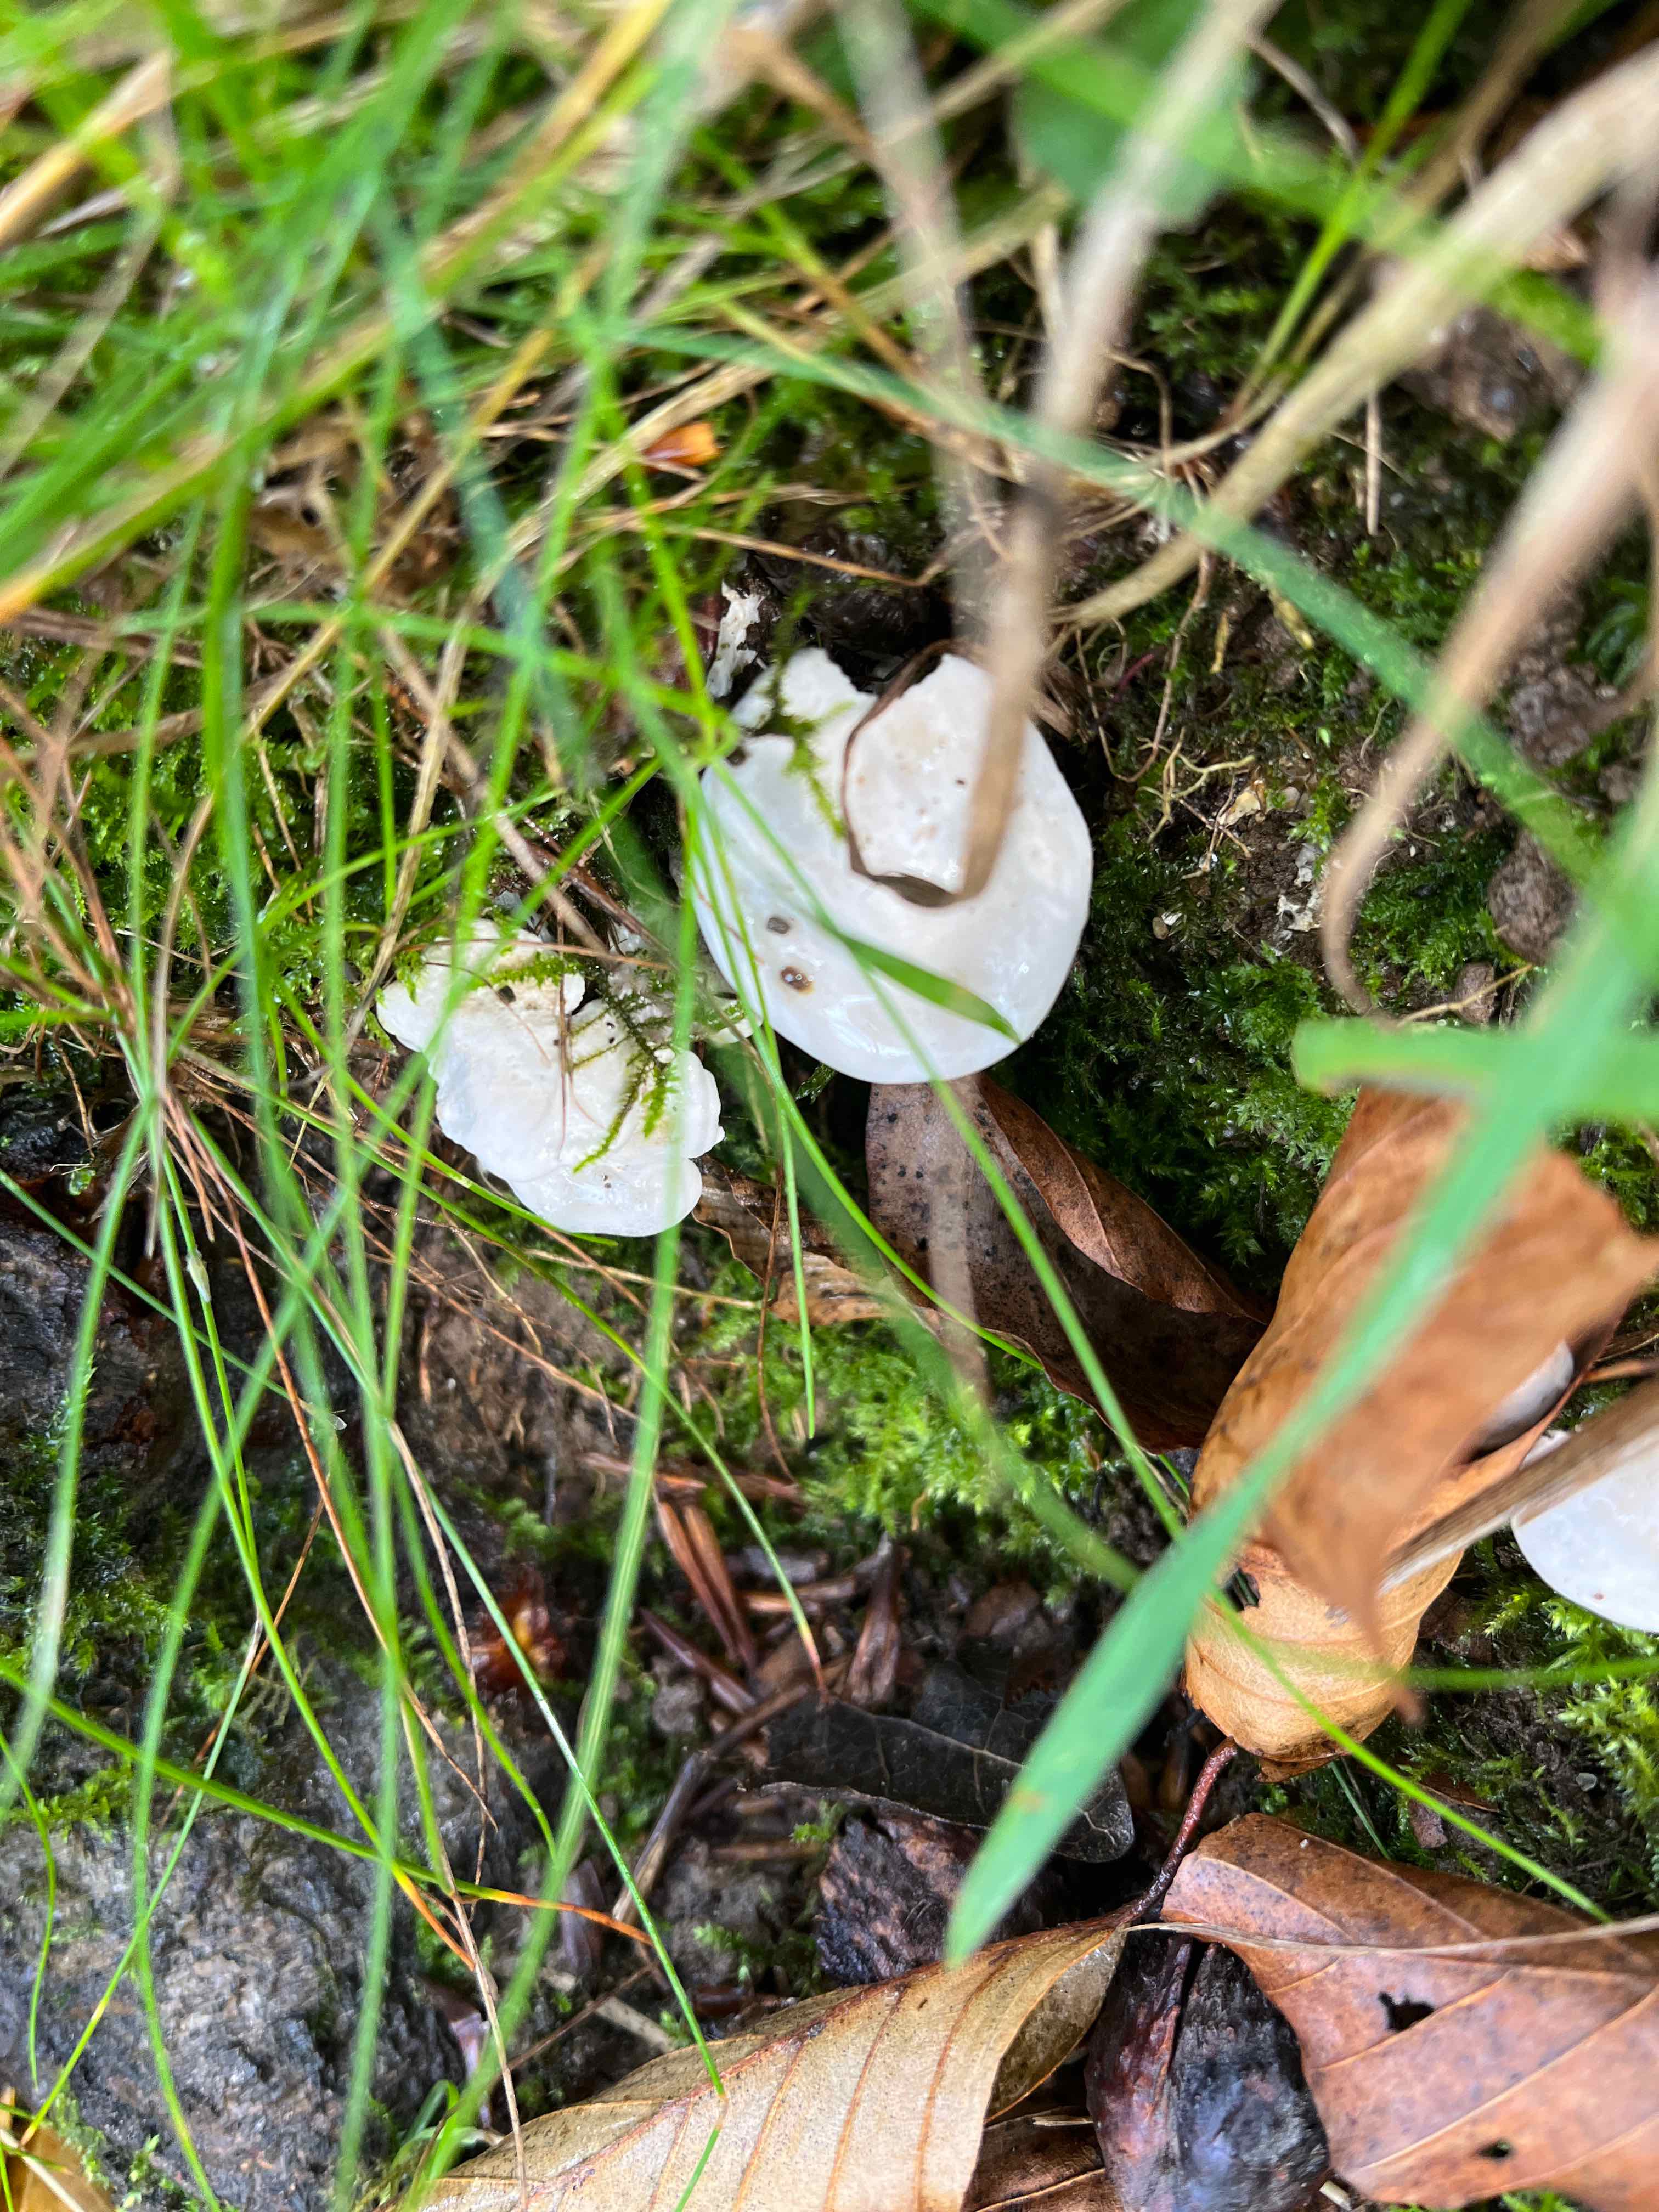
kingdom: Fungi
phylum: Basidiomycota
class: Agaricomycetes
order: Agaricales
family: Entolomataceae
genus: Clitopilus
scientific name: Clitopilus prunulus
